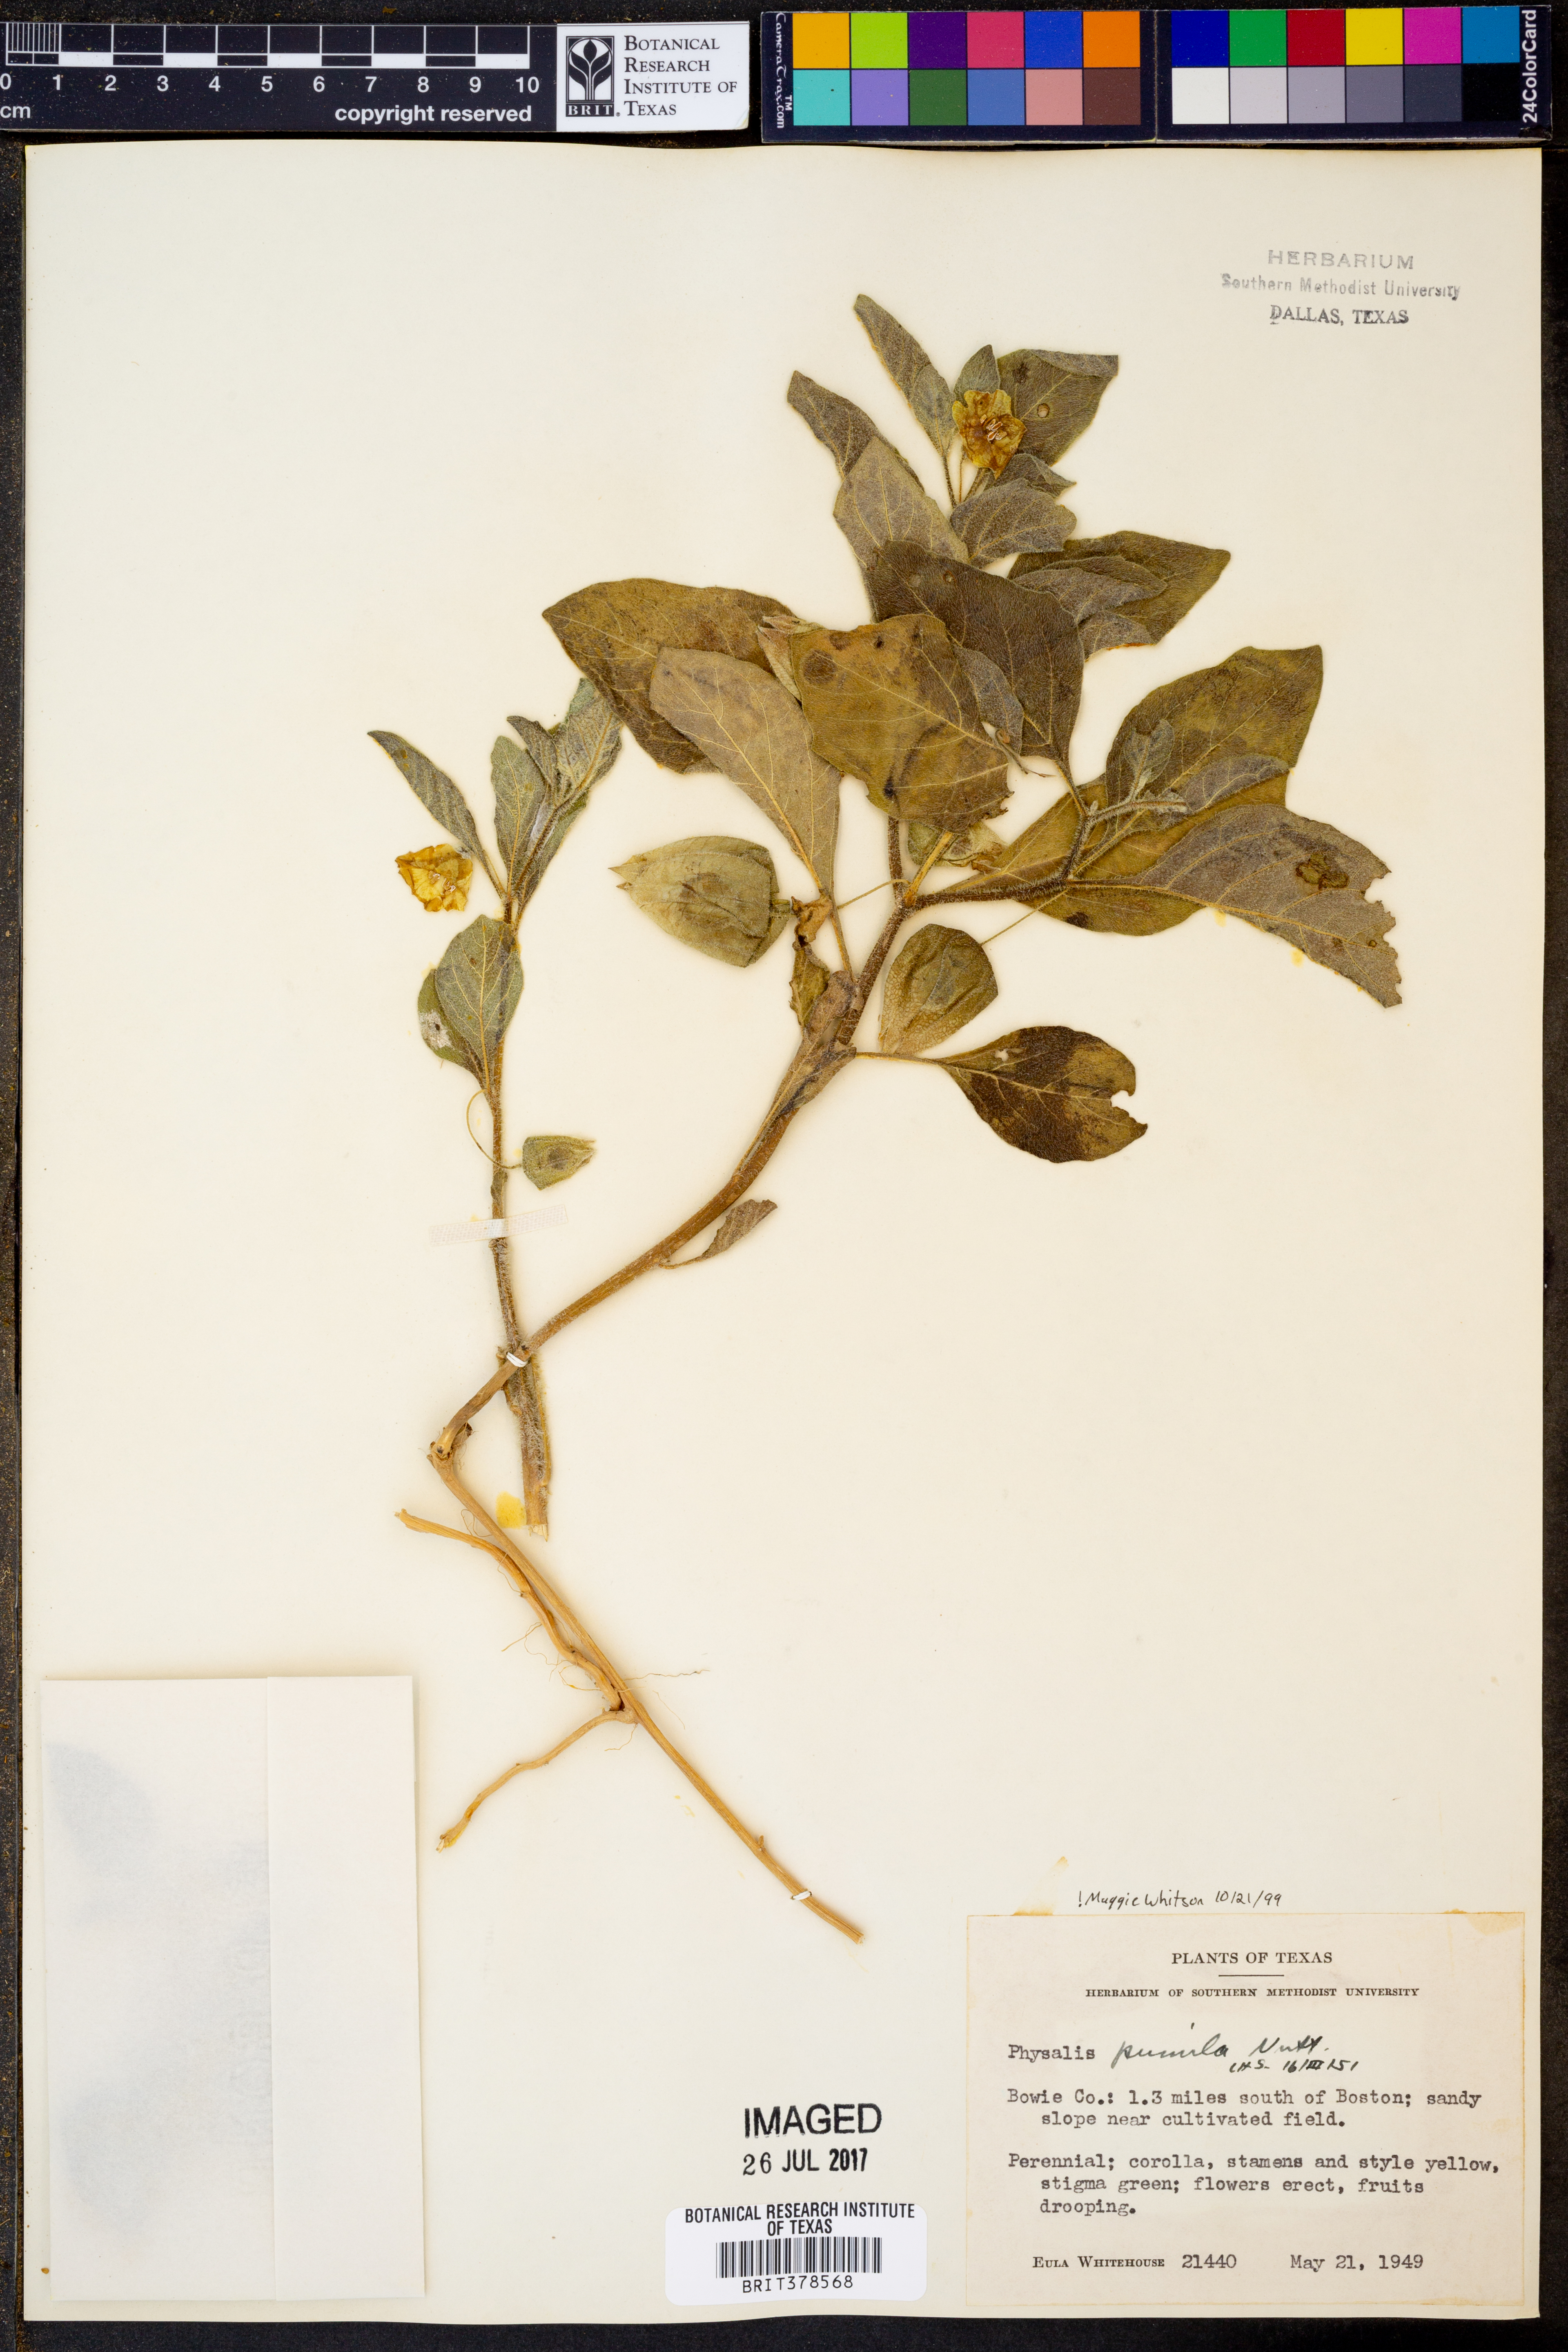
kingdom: Plantae
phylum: Tracheophyta
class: Magnoliopsida
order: Solanales
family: Solanaceae
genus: Physalis
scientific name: Physalis pumila
